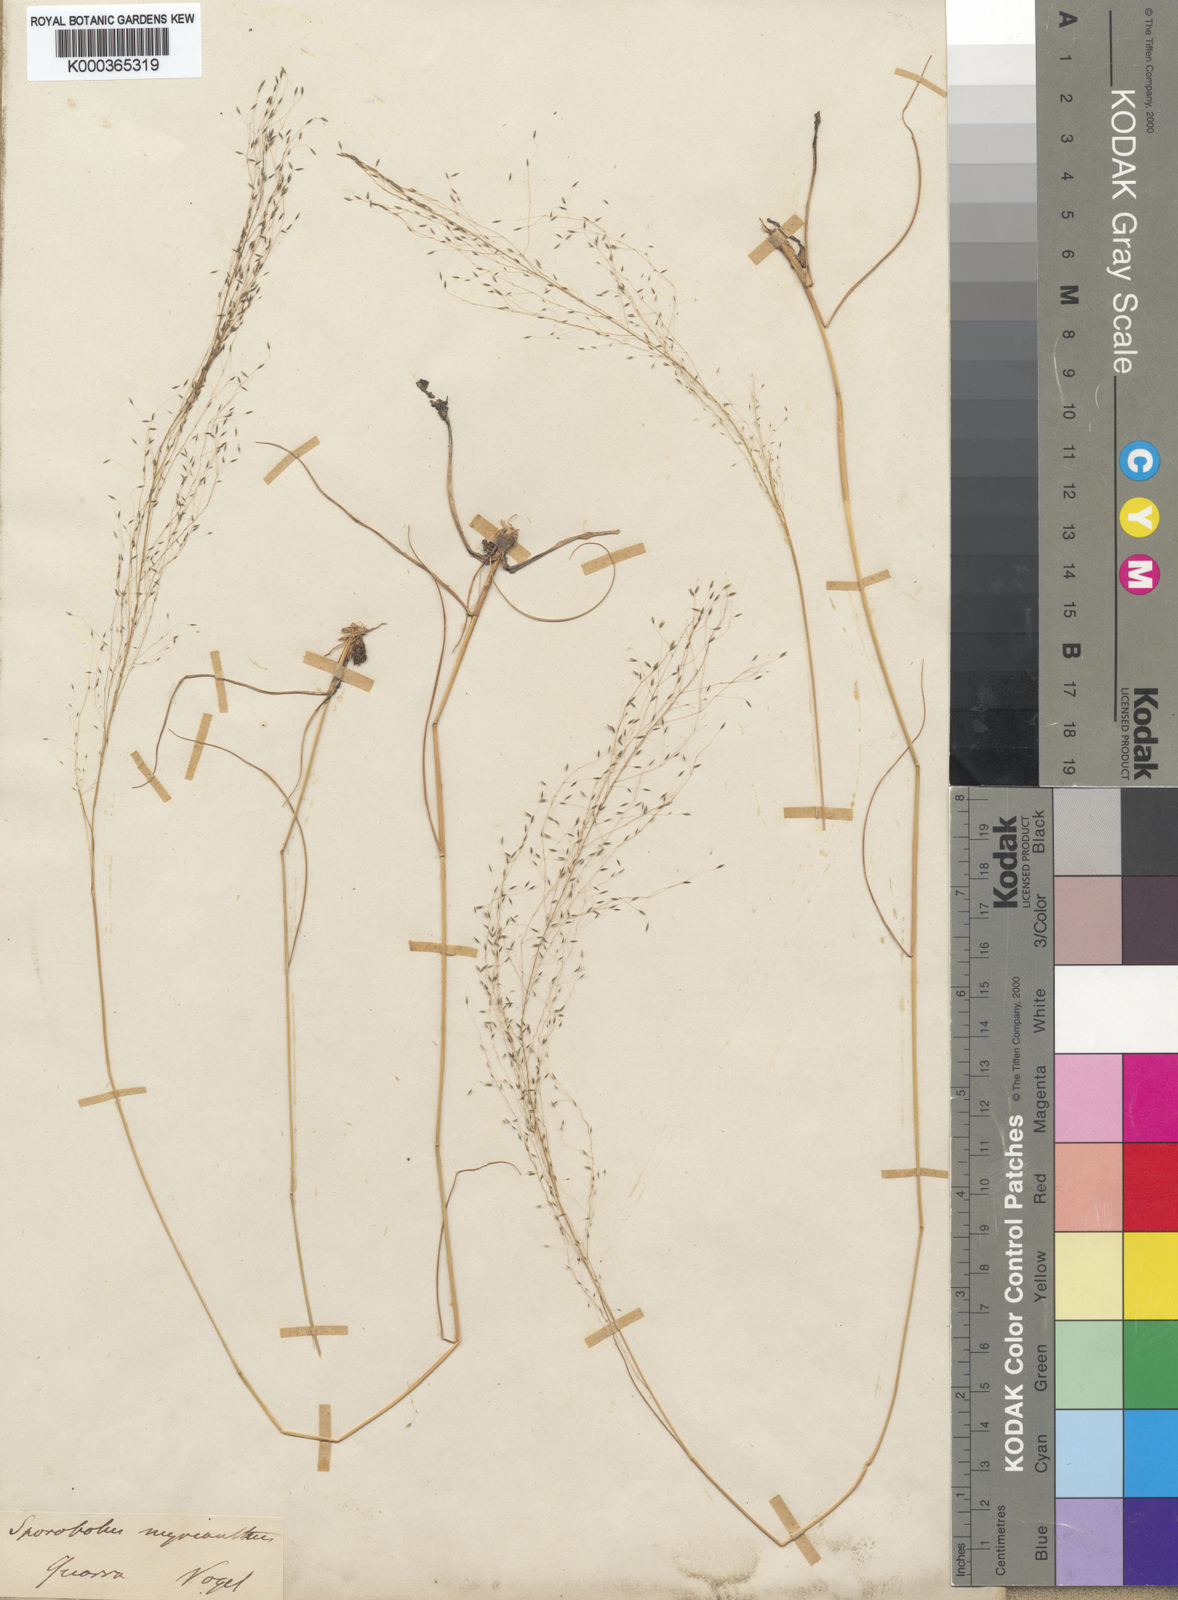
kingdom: Plantae
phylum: Tracheophyta
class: Liliopsida
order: Poales
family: Poaceae
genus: Sporobolus
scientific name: Sporobolus myrianthus
